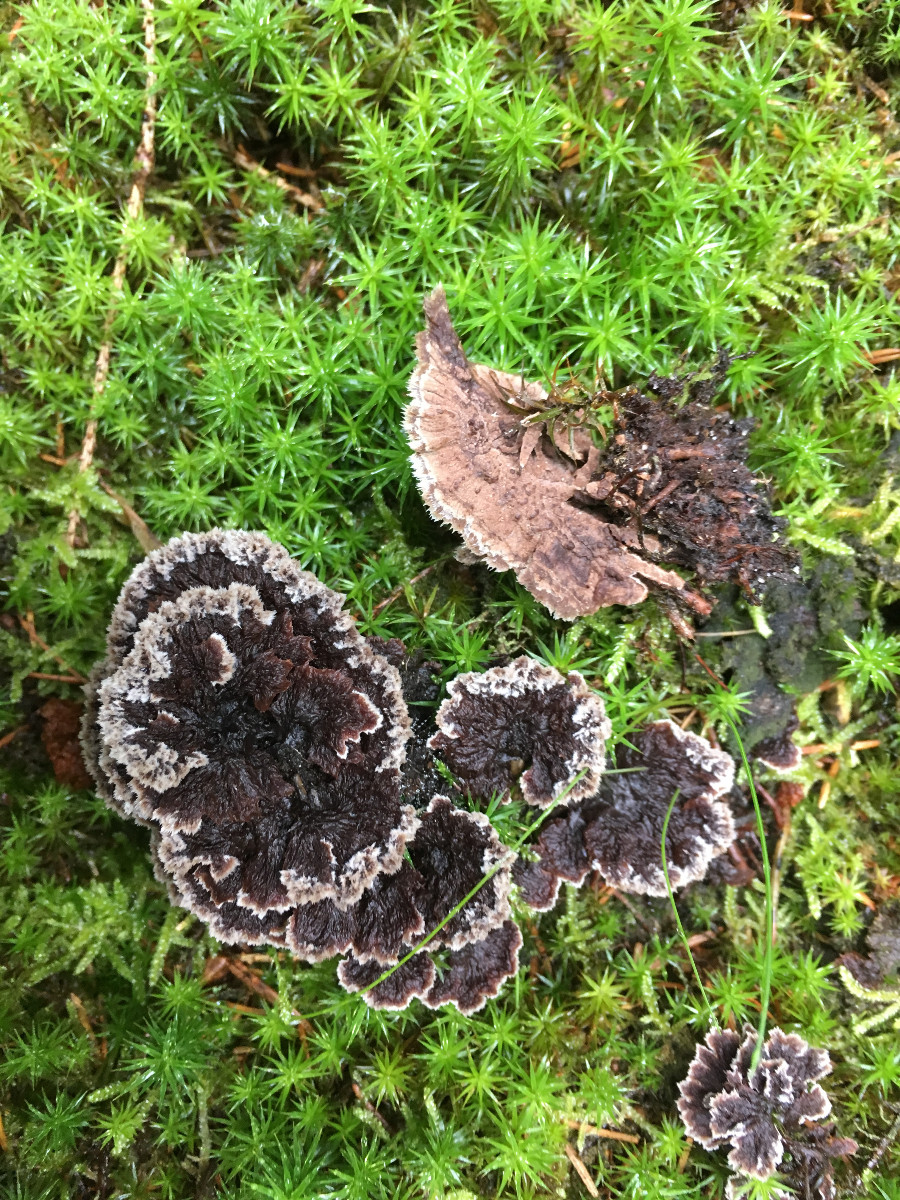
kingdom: Fungi
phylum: Basidiomycota
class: Agaricomycetes
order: Thelephorales
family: Thelephoraceae
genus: Thelephora
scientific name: Thelephora terrestris
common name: fliget frynsesvamp
